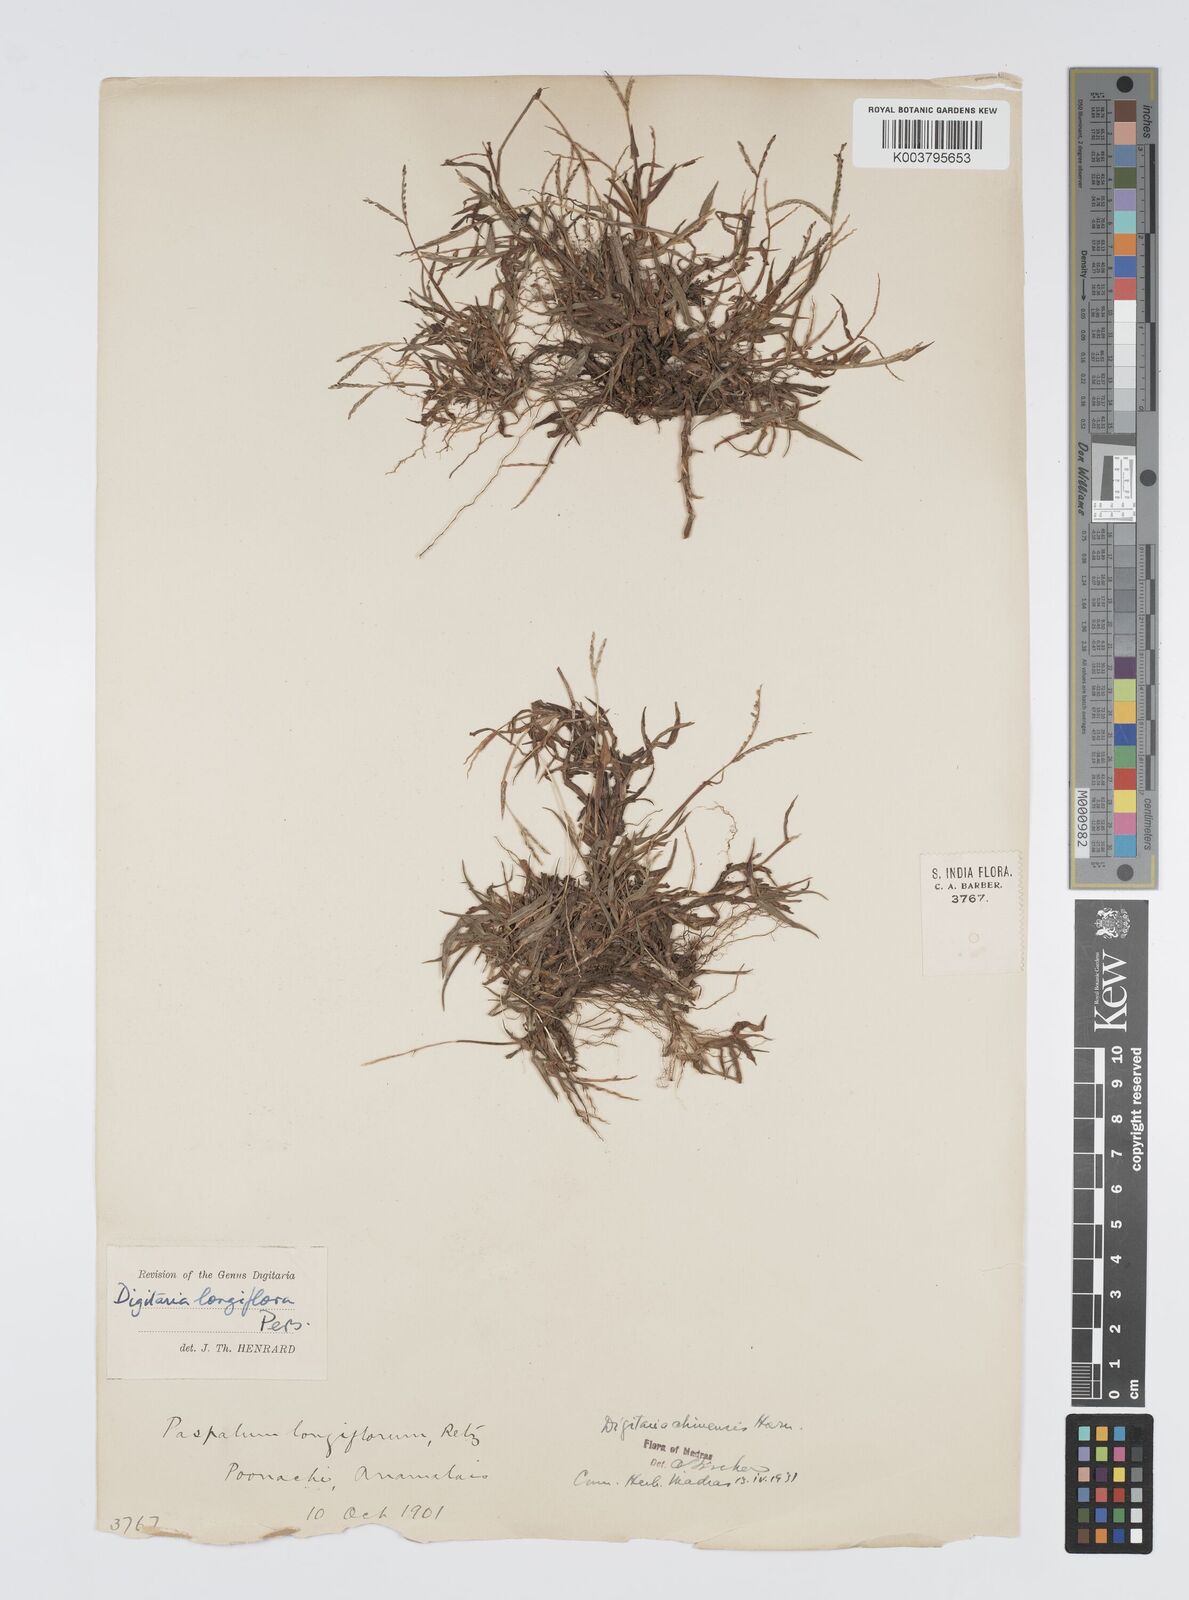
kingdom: Plantae
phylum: Tracheophyta
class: Liliopsida
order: Poales
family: Poaceae
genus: Digitaria
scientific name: Digitaria longiflora
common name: Wire crabgrass
